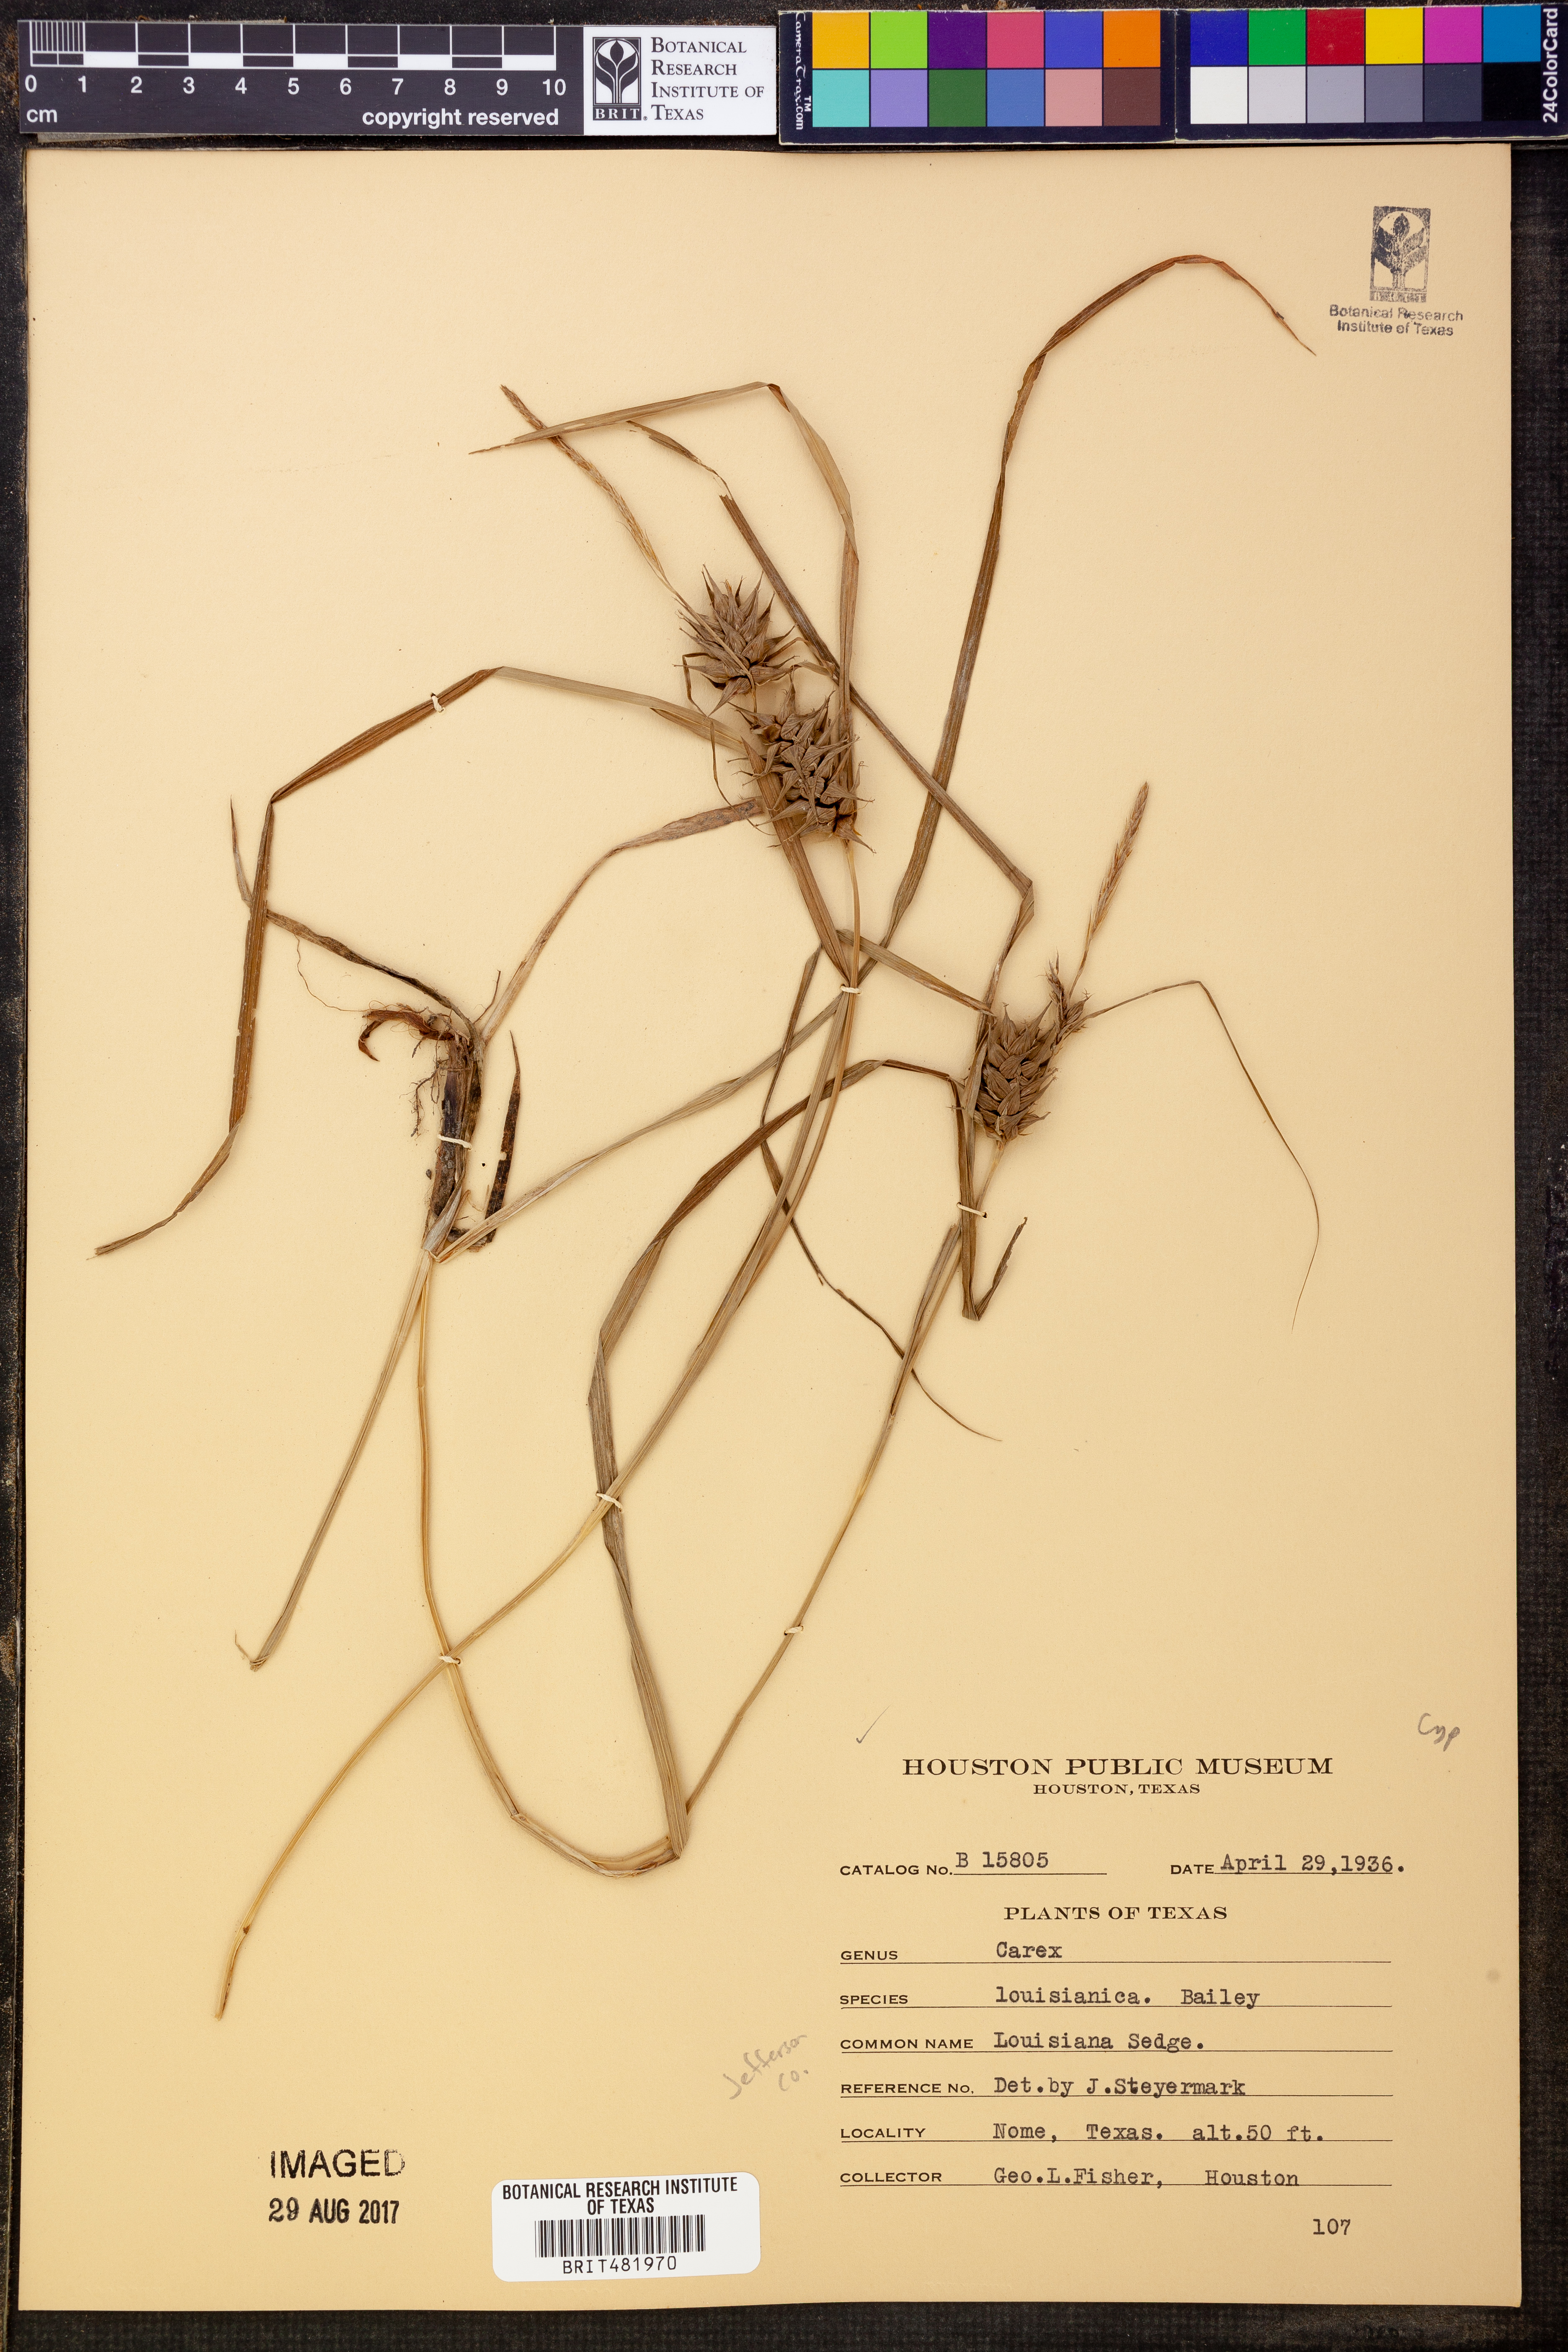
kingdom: Plantae
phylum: Tracheophyta
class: Liliopsida
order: Poales
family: Cyperaceae
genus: Carex
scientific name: Carex louisianica
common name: Louisiana sedge
